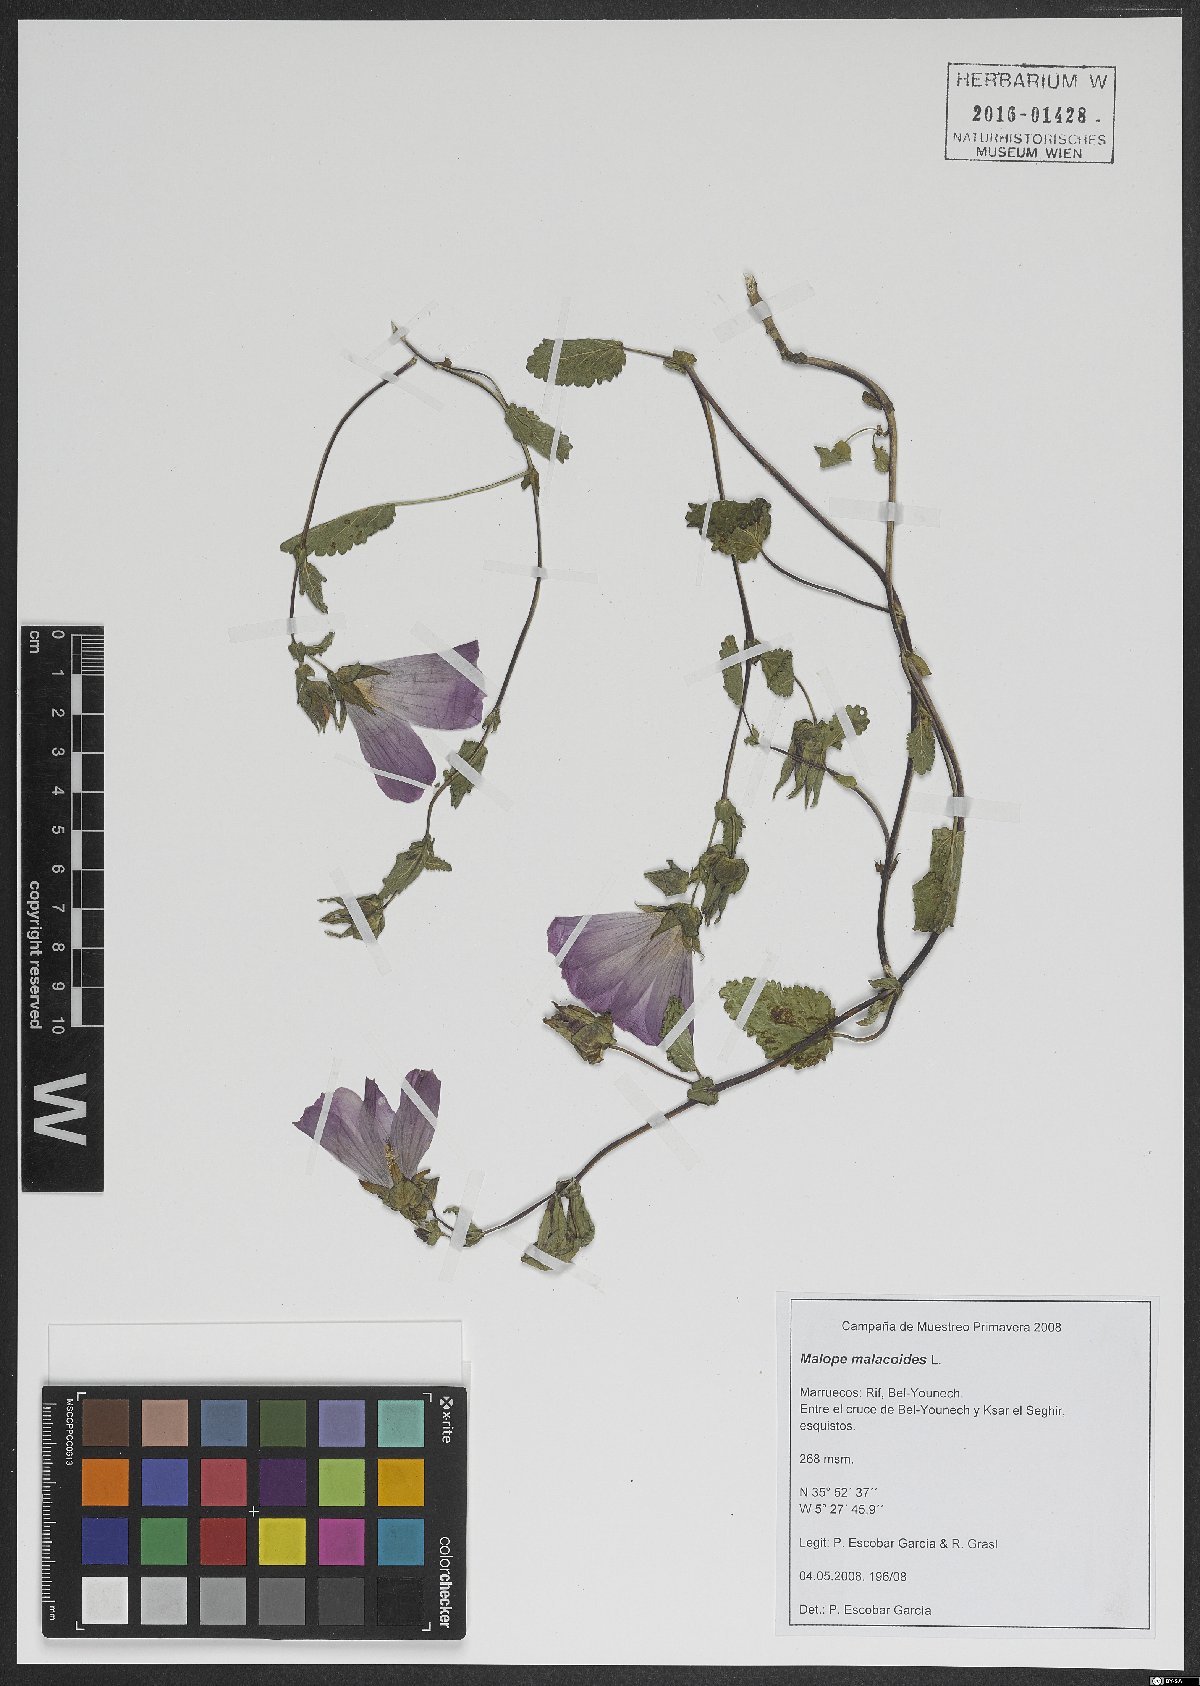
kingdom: Plantae
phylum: Tracheophyta
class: Magnoliopsida
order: Malvales
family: Malvaceae
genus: Malope
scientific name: Malope malacoides
